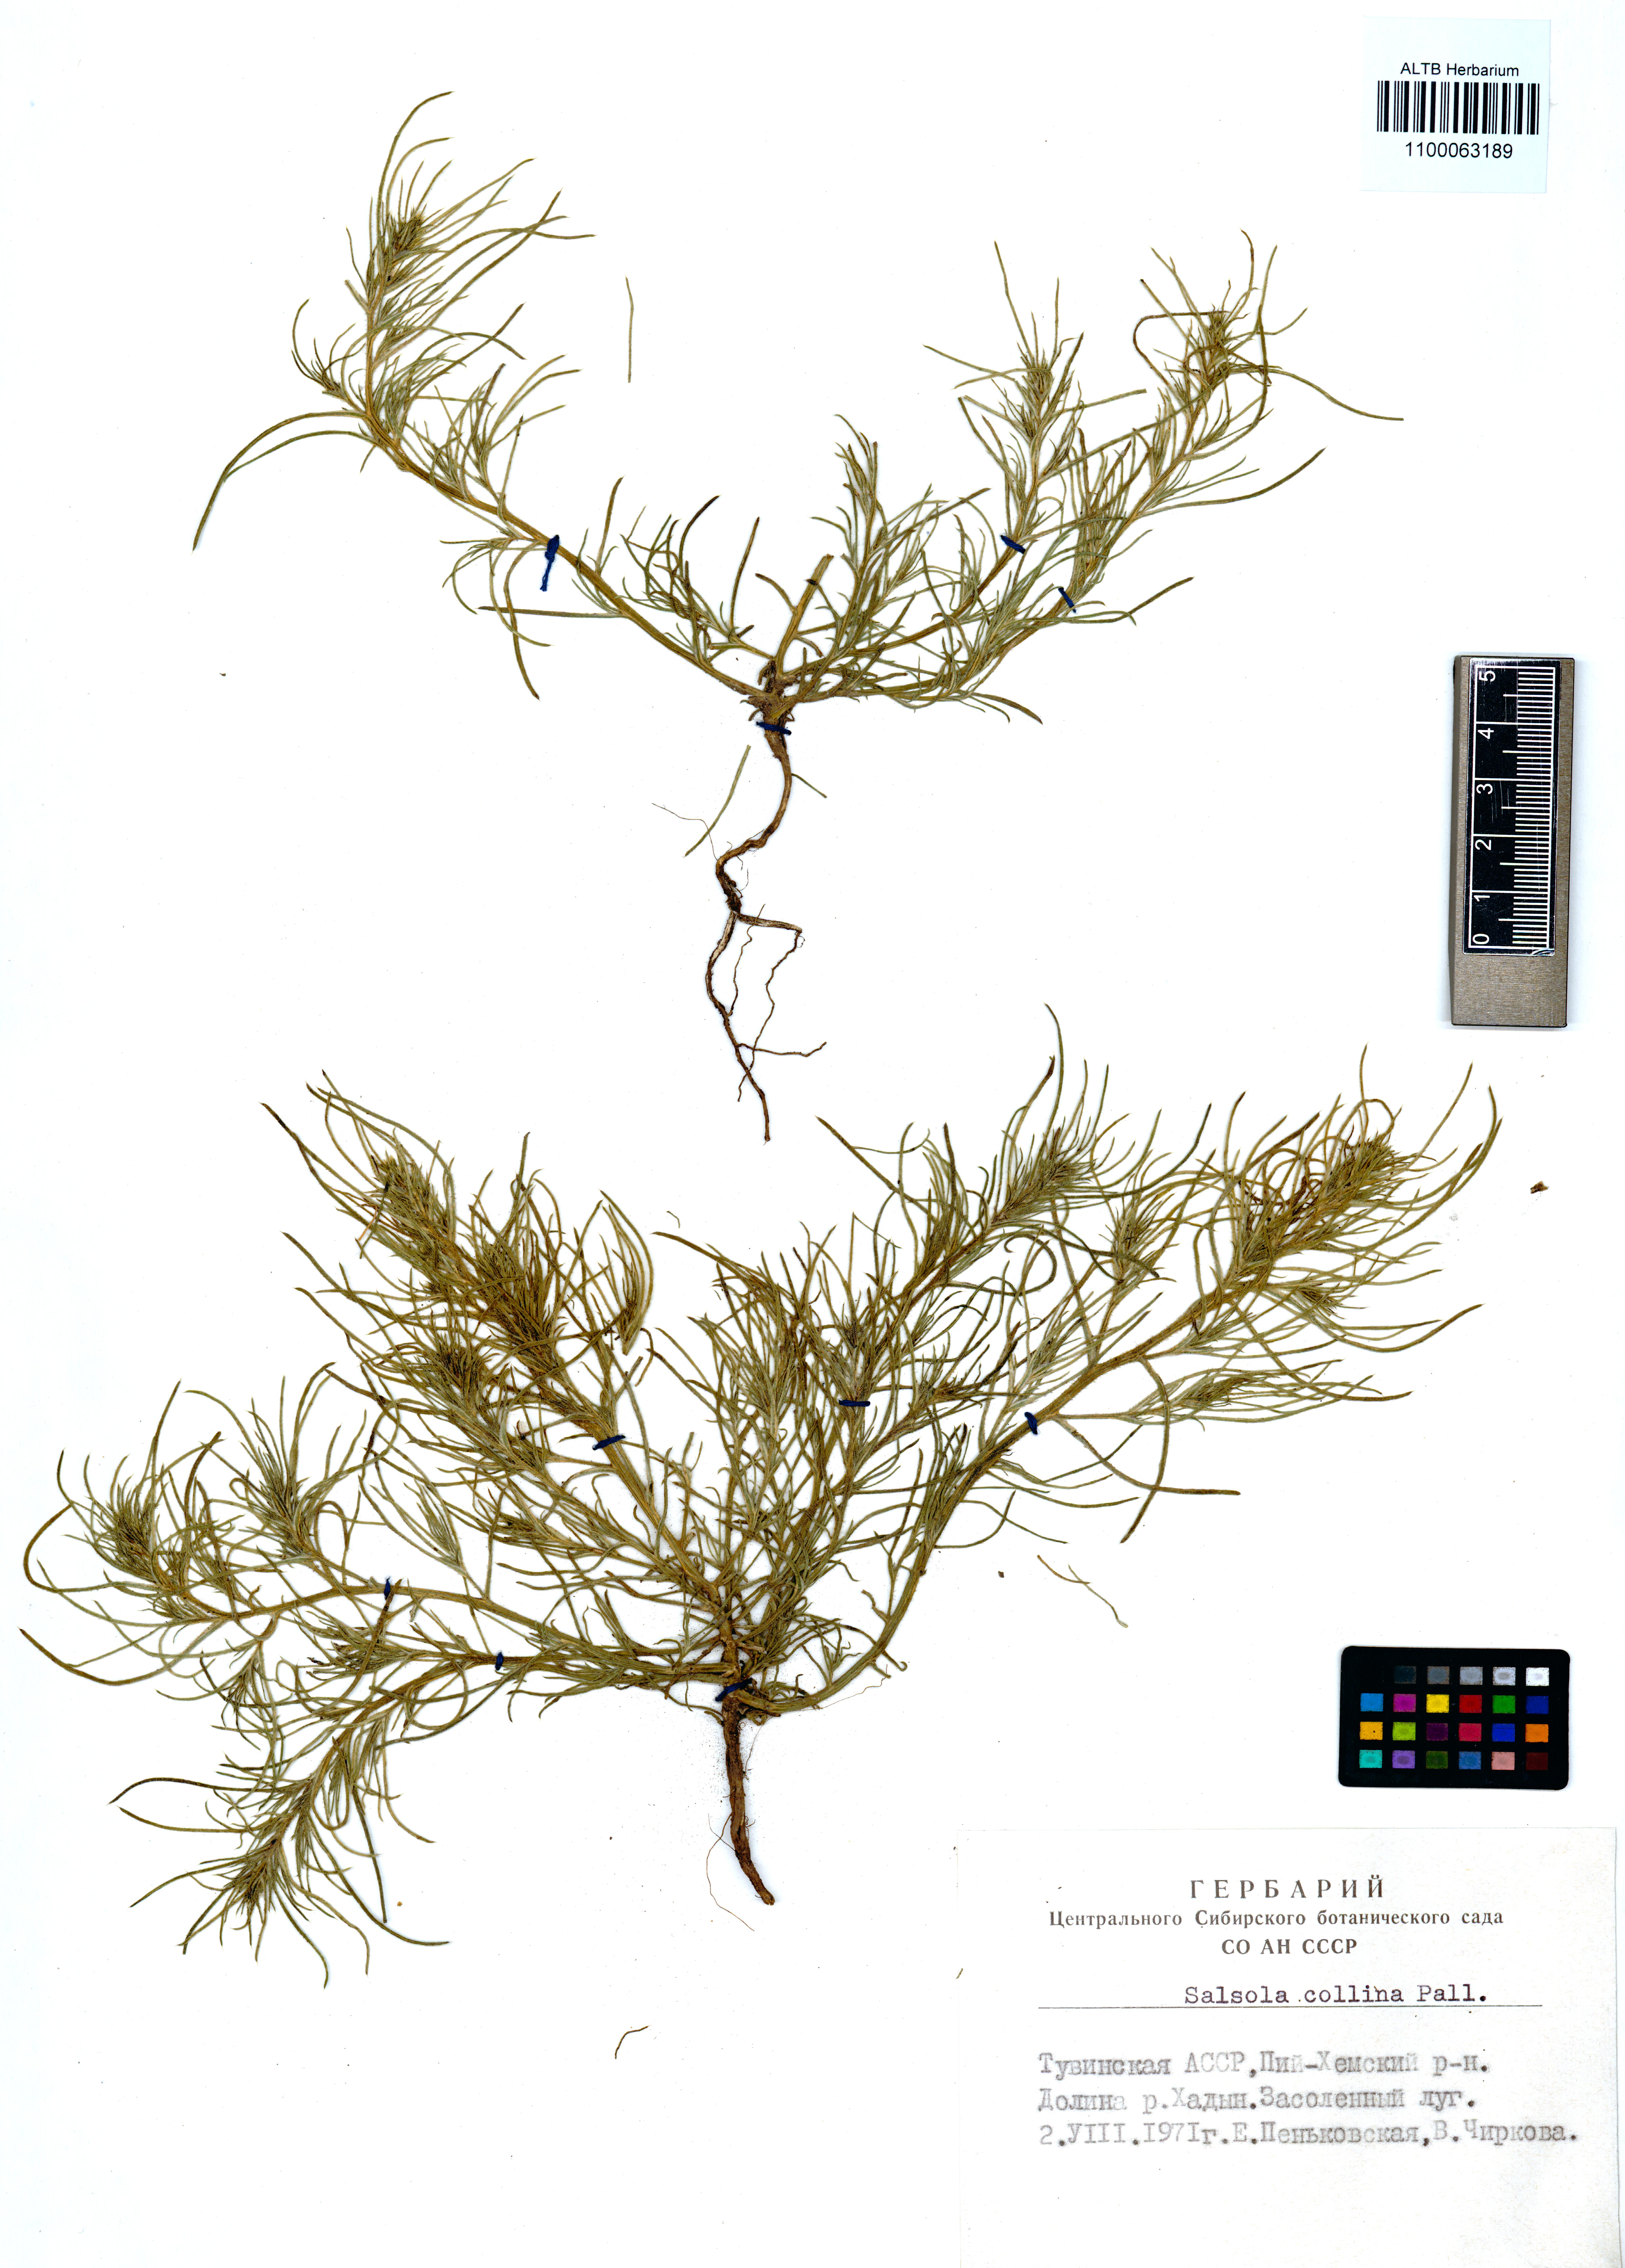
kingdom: Plantae
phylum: Tracheophyta
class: Magnoliopsida
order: Caryophyllales
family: Amaranthaceae
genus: Salsola
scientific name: Salsola collina
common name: Tumbleweed
